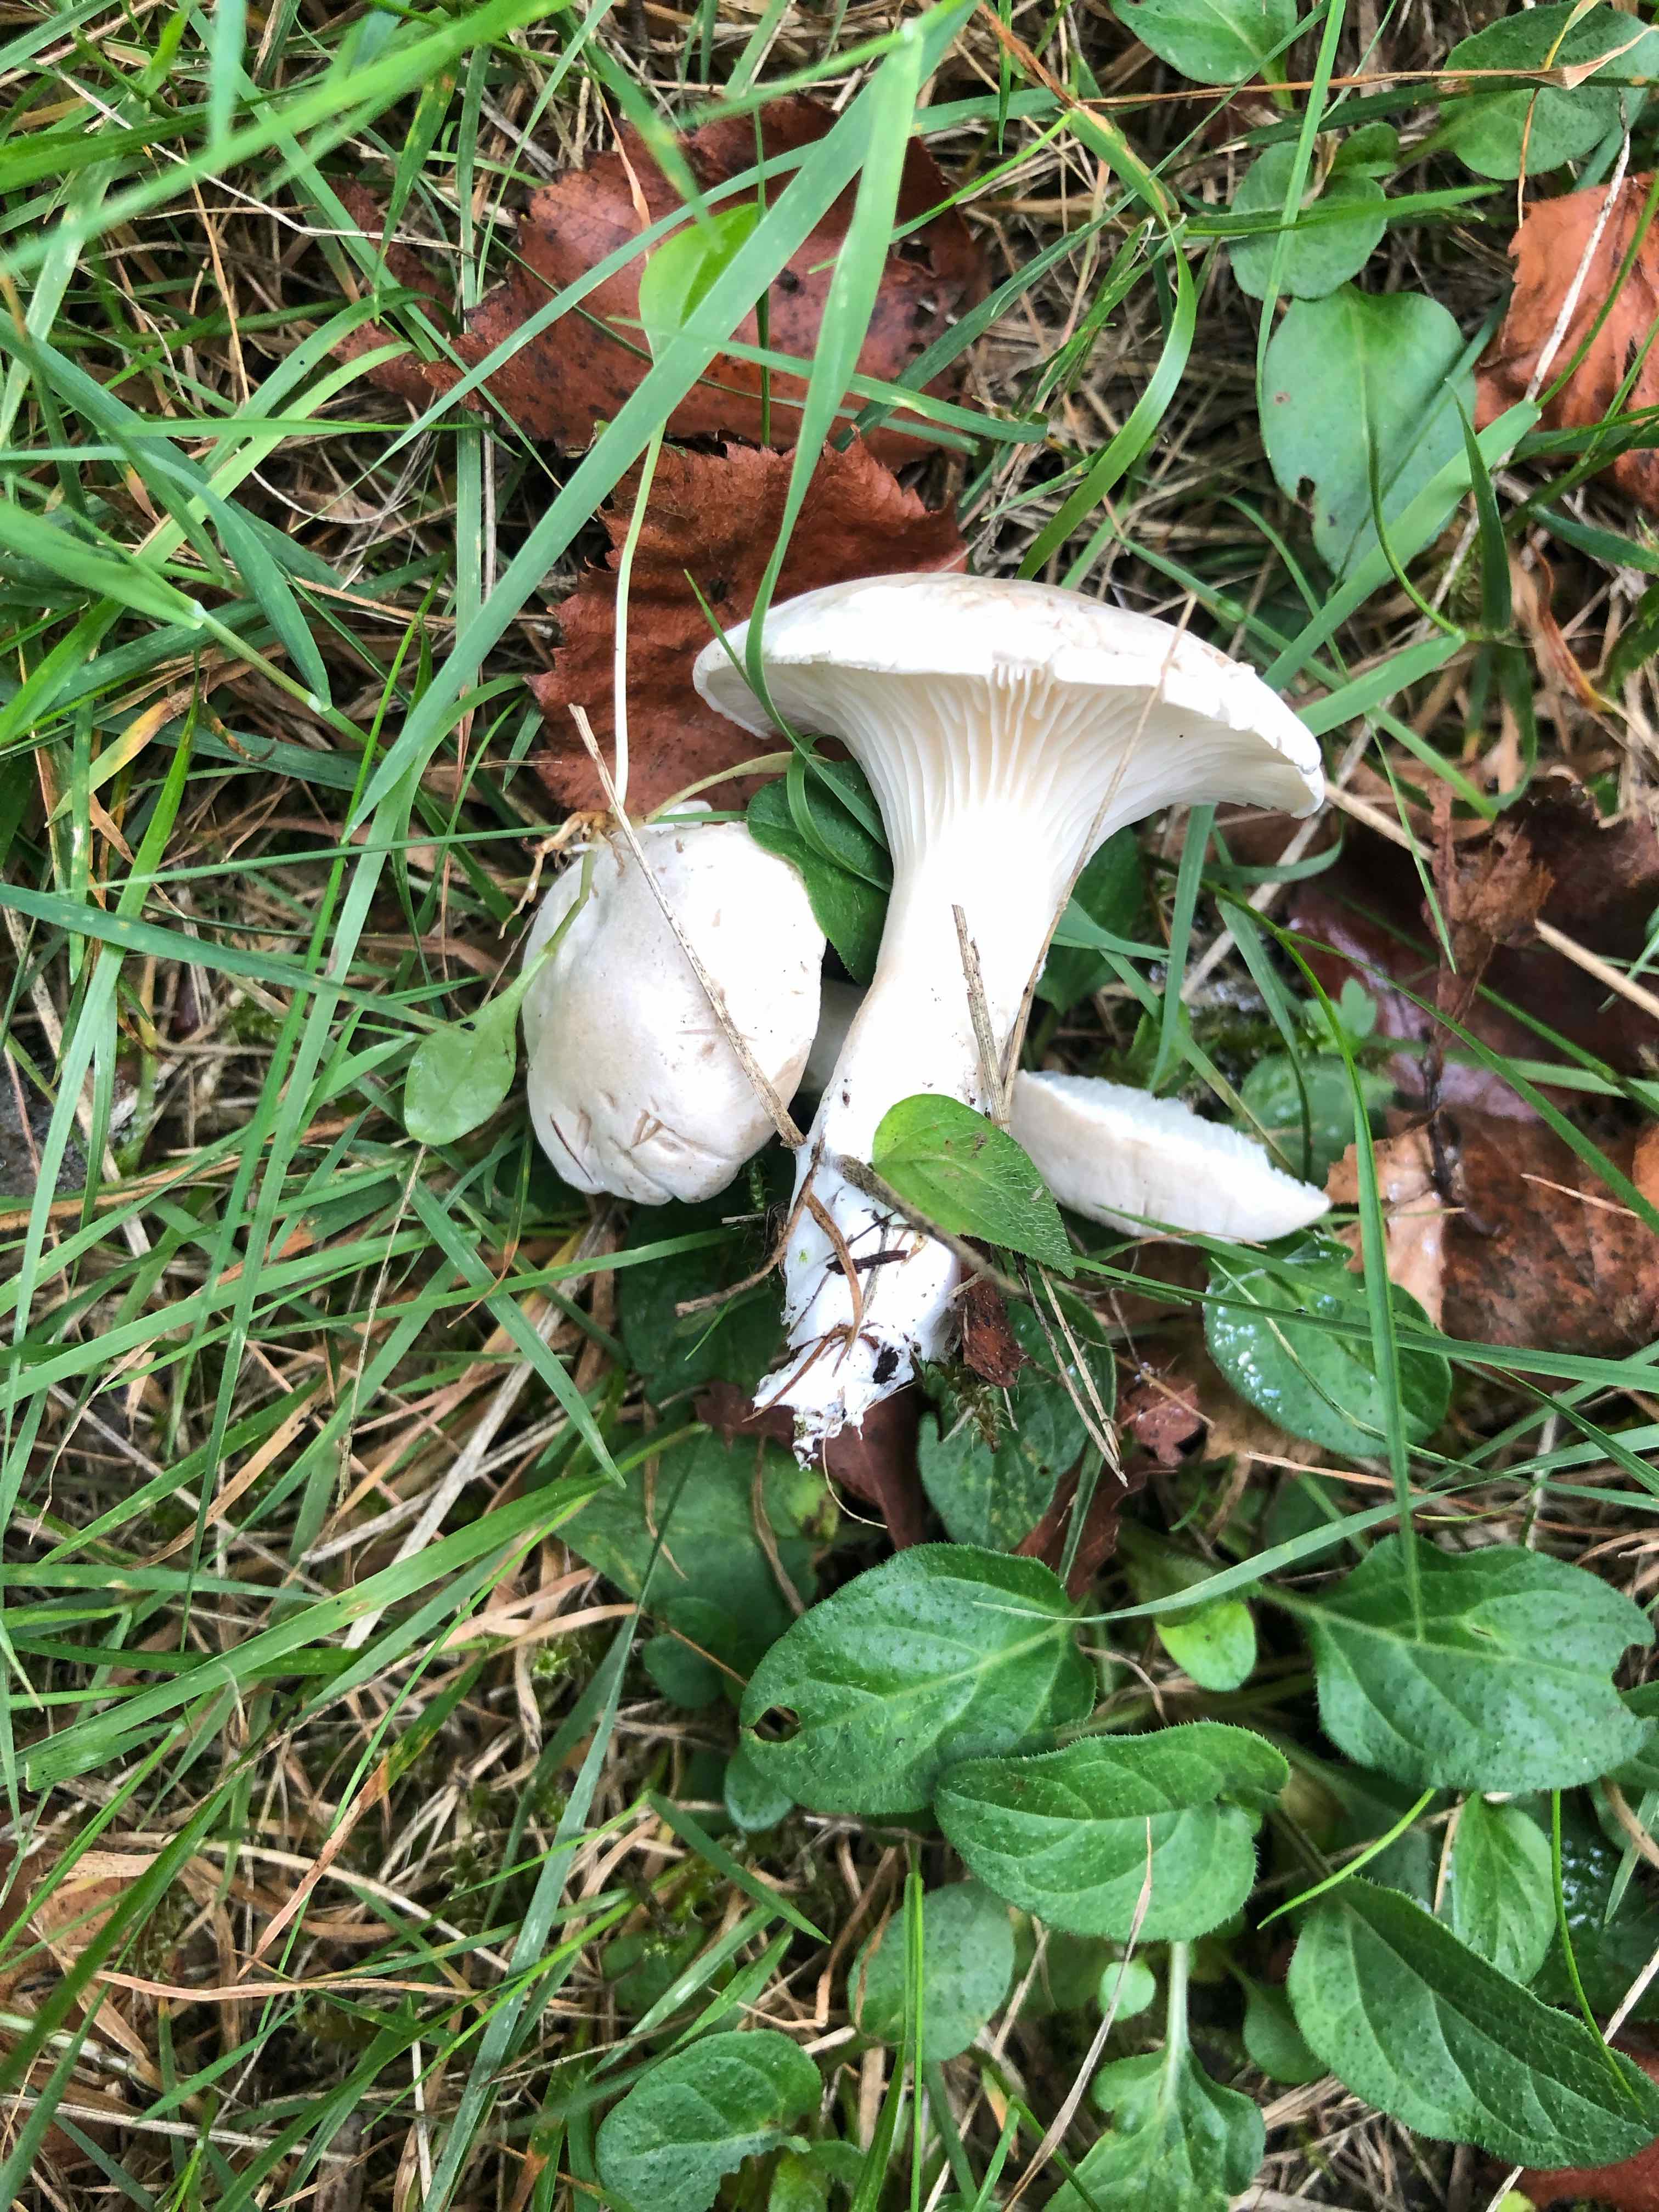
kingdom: Fungi
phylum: Basidiomycota
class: Agaricomycetes
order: Agaricales
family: Entolomataceae
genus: Clitopilus
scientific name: Clitopilus prunulus
